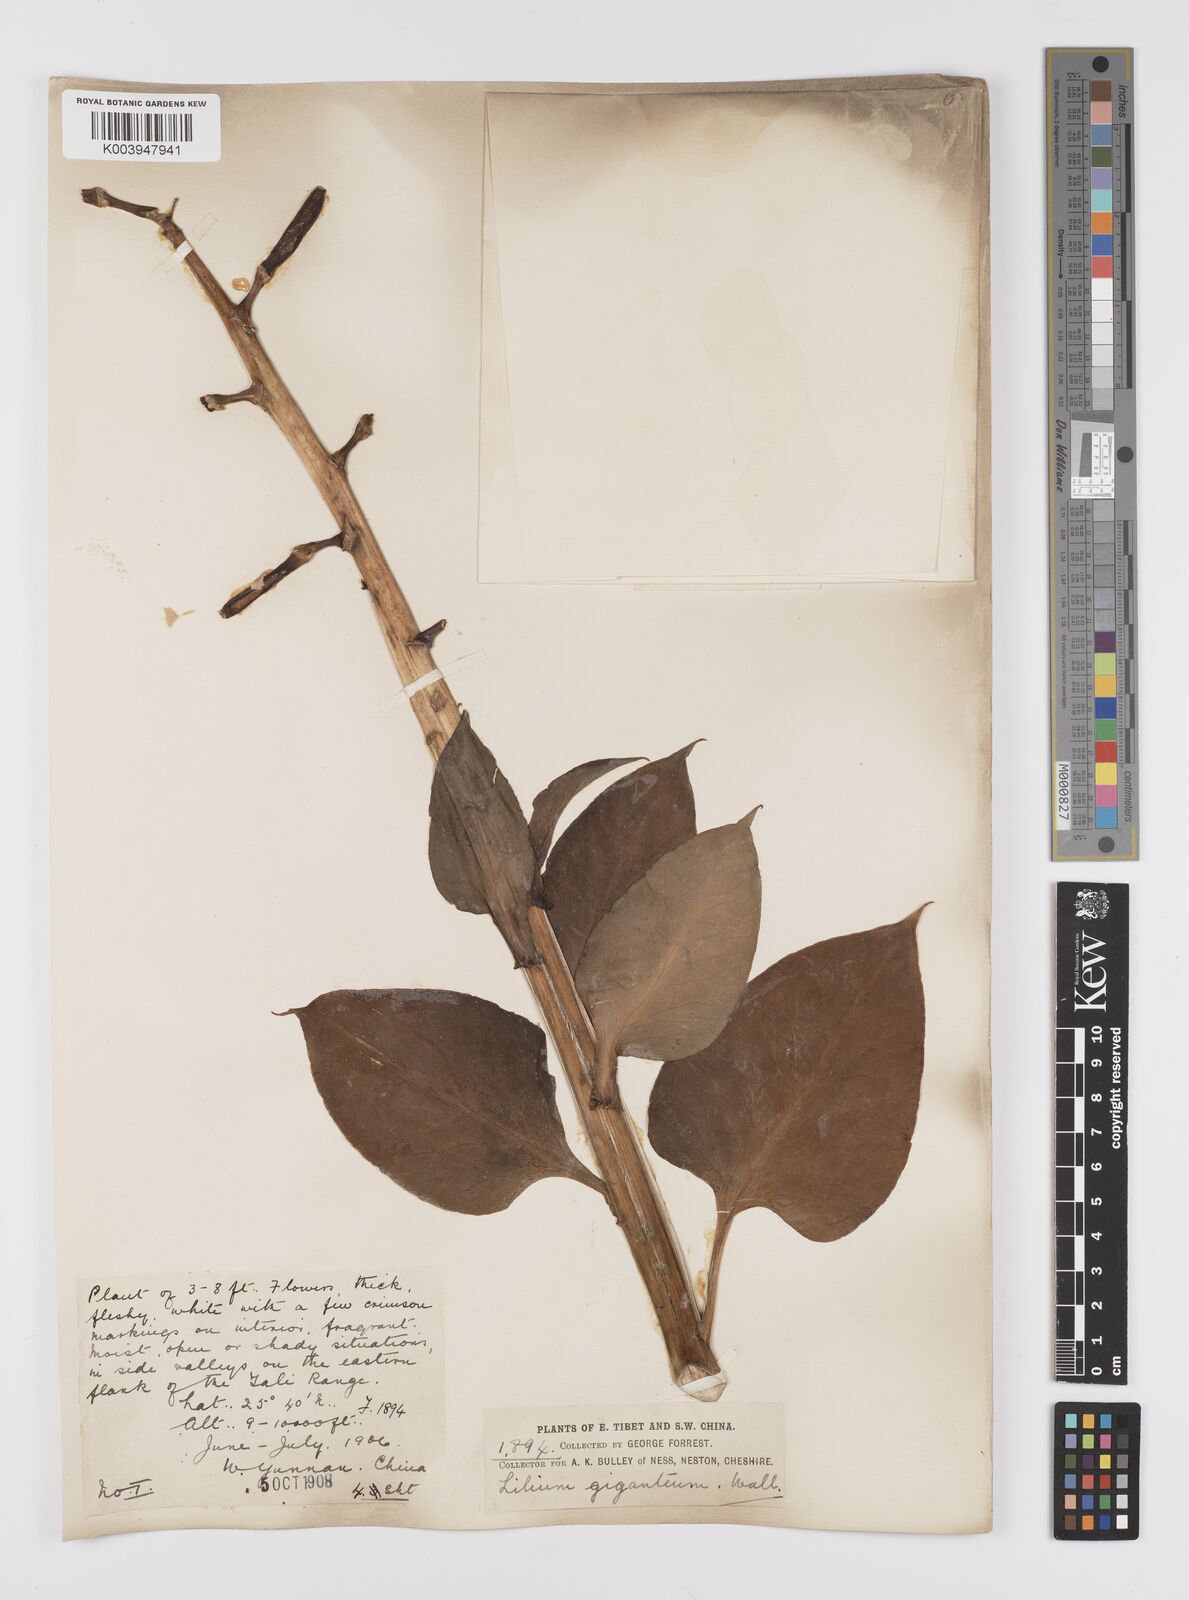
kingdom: Plantae
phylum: Tracheophyta
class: Liliopsida
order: Liliales
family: Liliaceae
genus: Cardiocrinum
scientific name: Cardiocrinum giganteum
